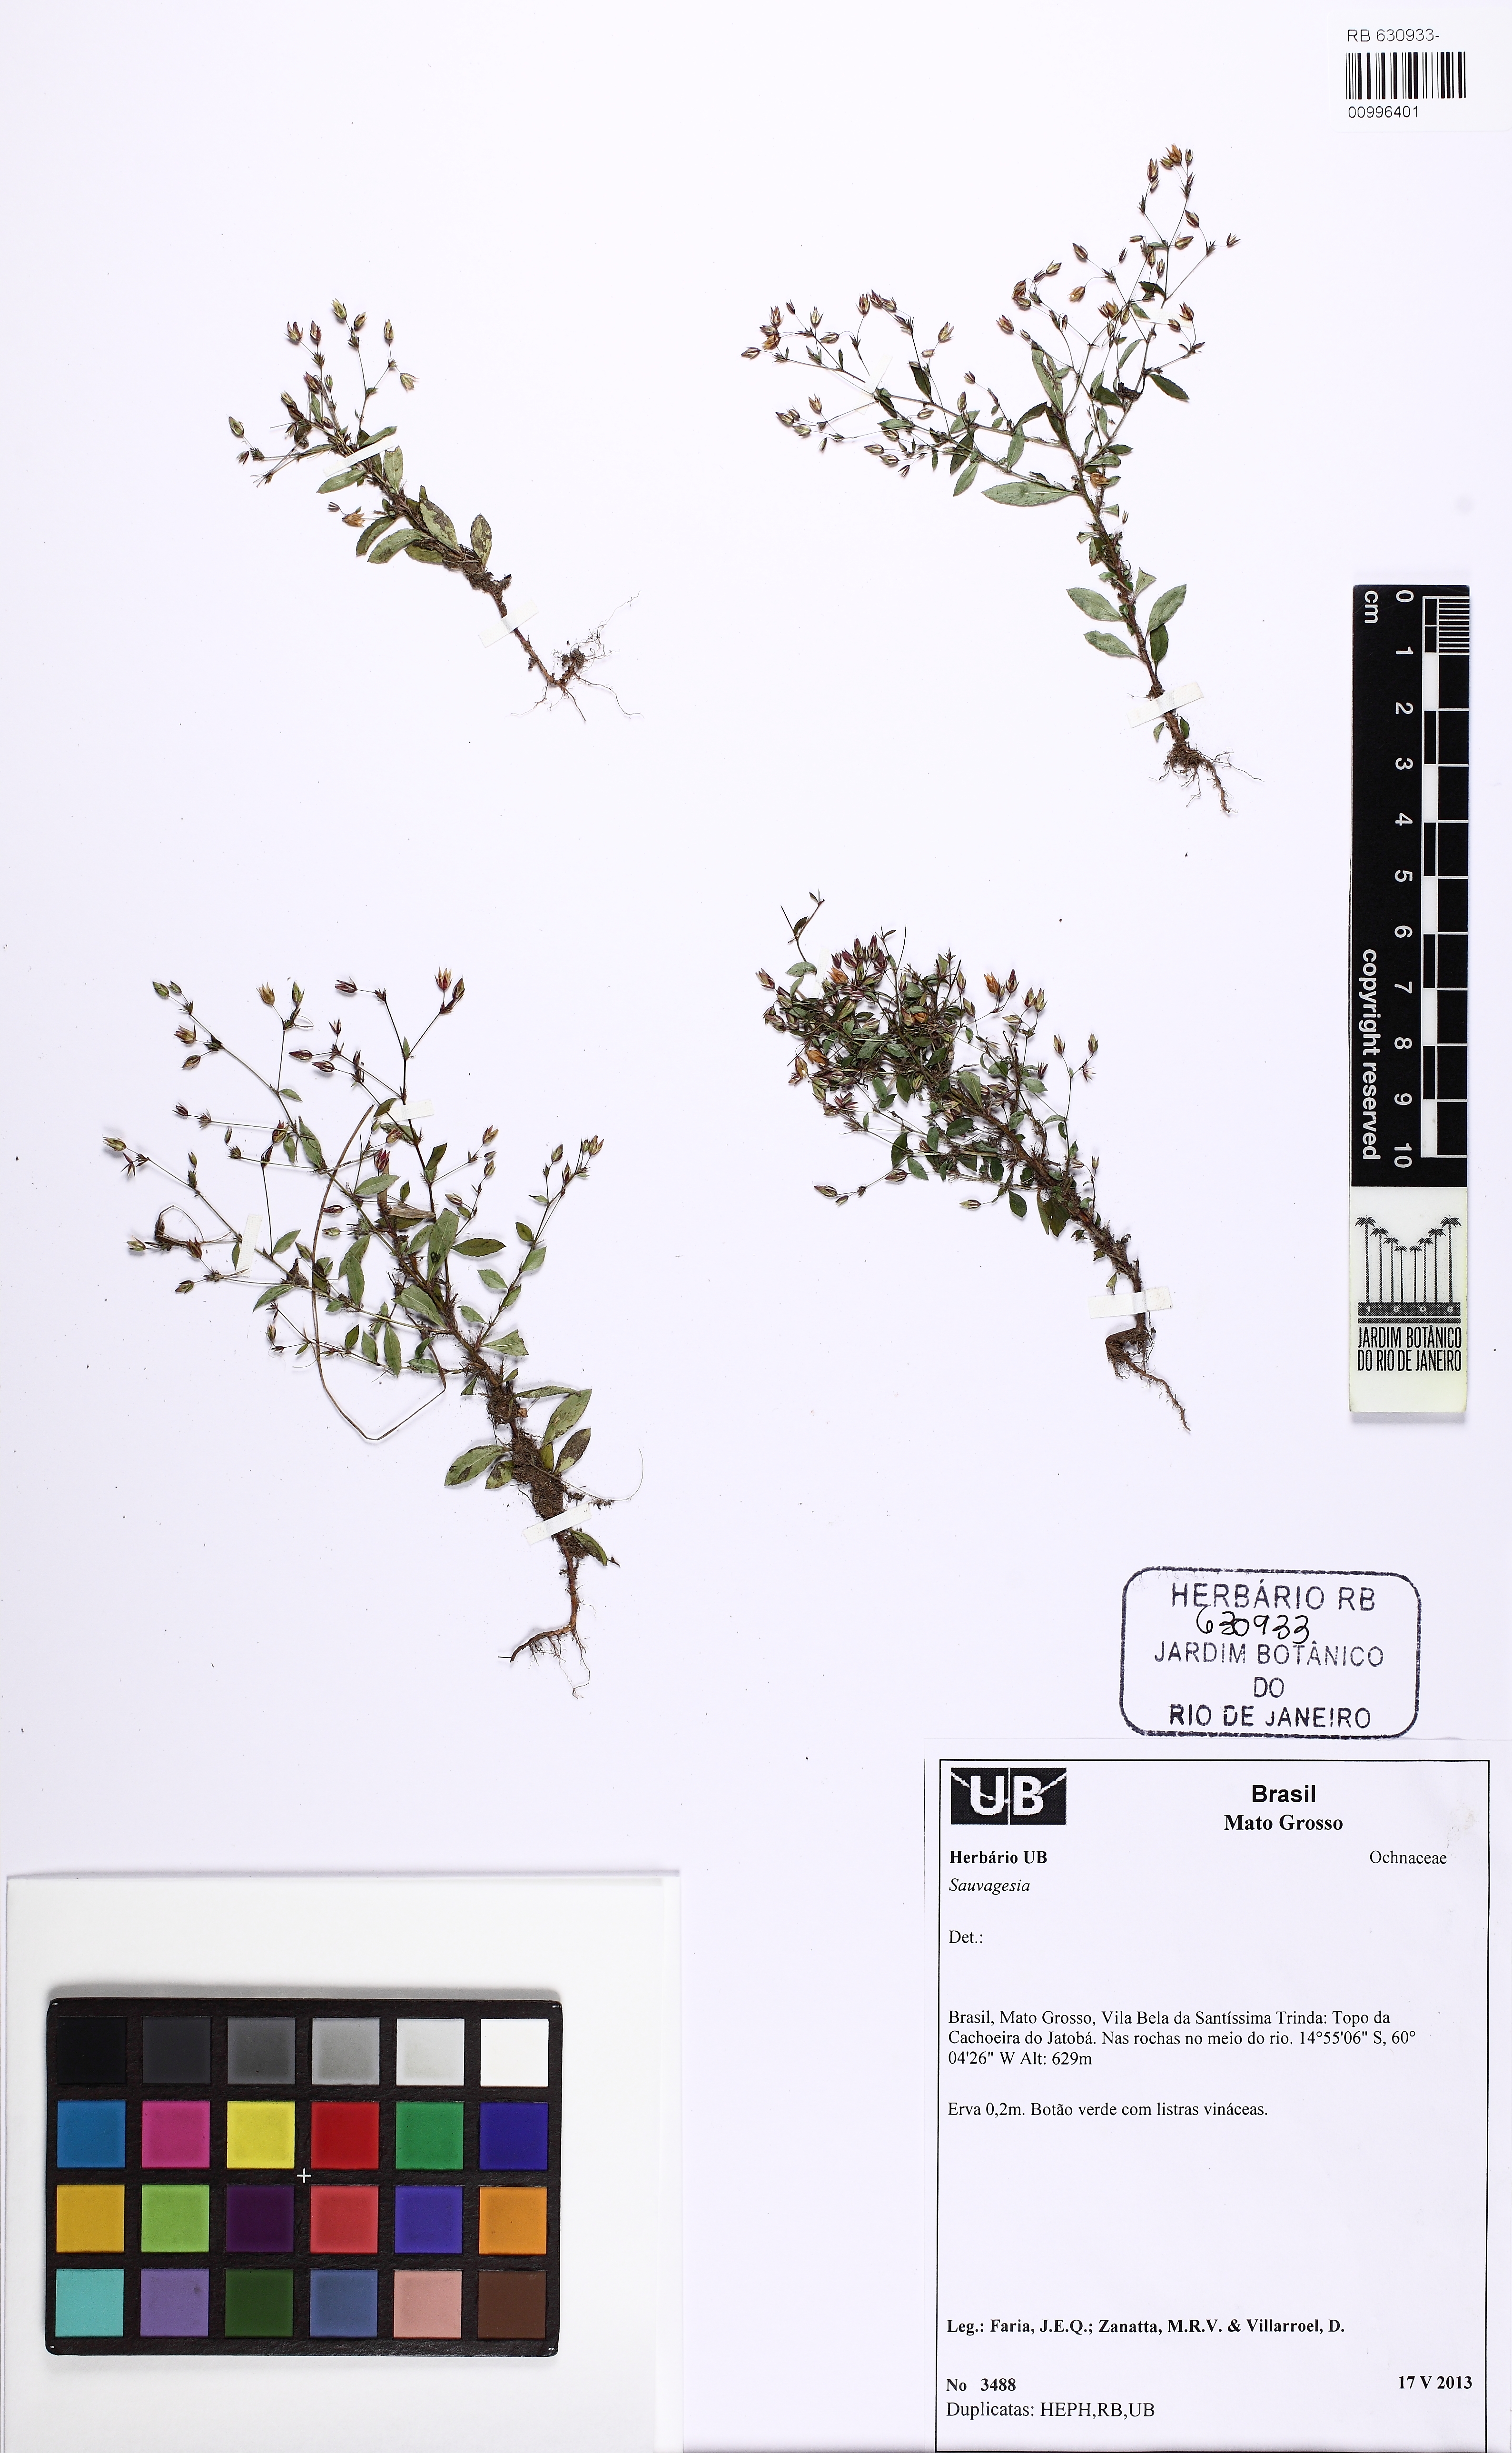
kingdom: Plantae
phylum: Tracheophyta
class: Magnoliopsida
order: Malpighiales
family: Ochnaceae
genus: Sauvagesia
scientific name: Sauvagesia
